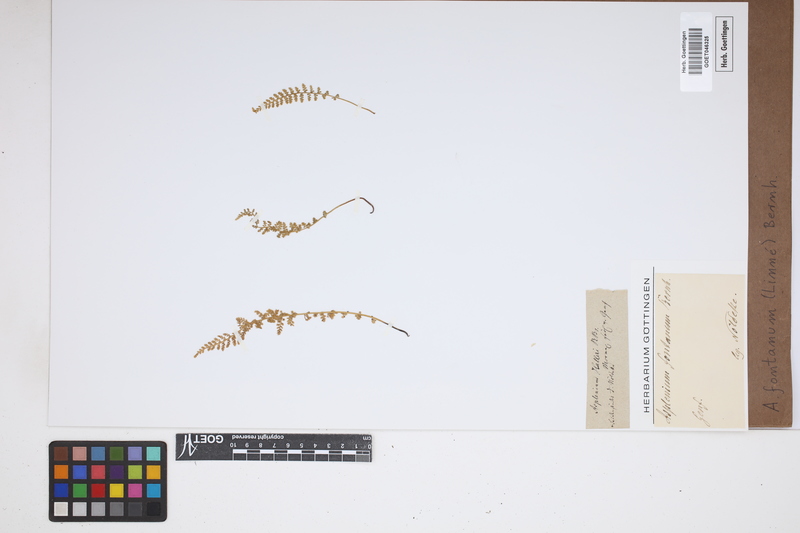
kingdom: Plantae
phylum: Tracheophyta
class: Polypodiopsida
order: Polypodiales
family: Aspleniaceae
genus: Asplenium
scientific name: Asplenium fontanum
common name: Fountain spleenwort
